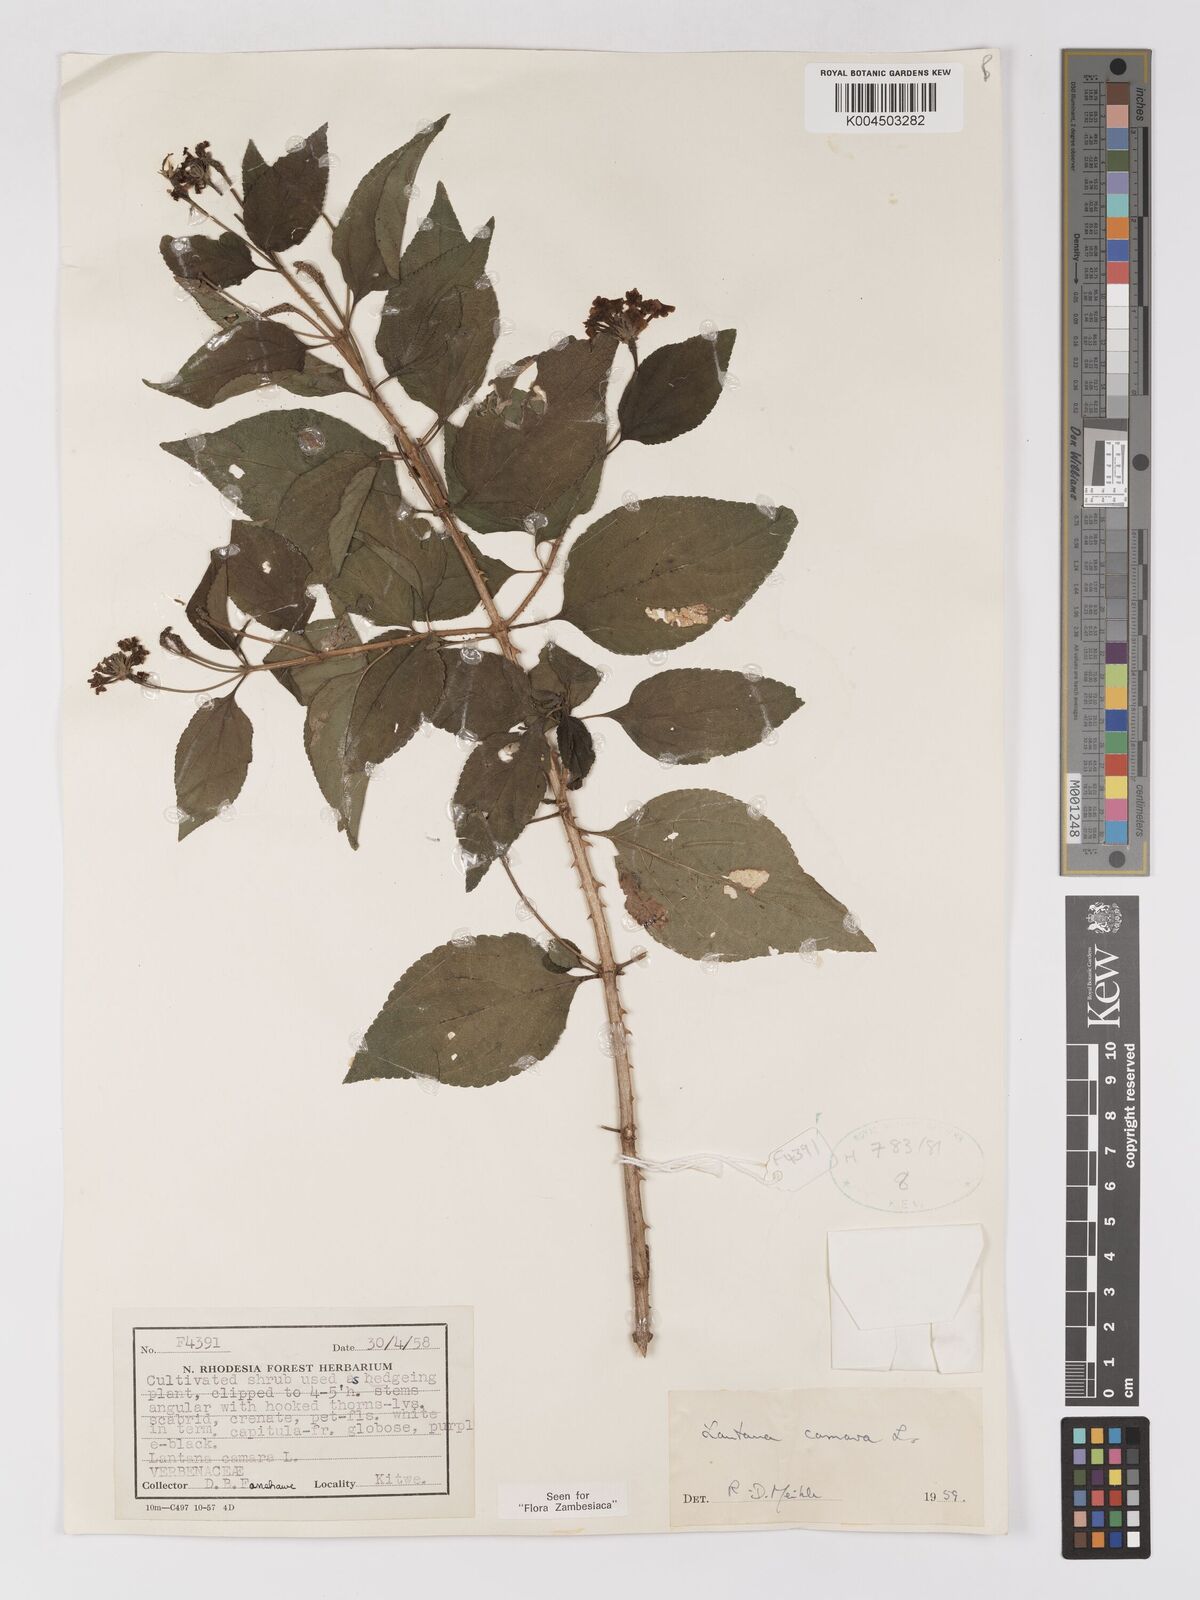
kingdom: Plantae
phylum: Tracheophyta
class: Magnoliopsida
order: Lamiales
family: Verbenaceae
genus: Lantana
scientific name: Lantana camara
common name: Lantana
